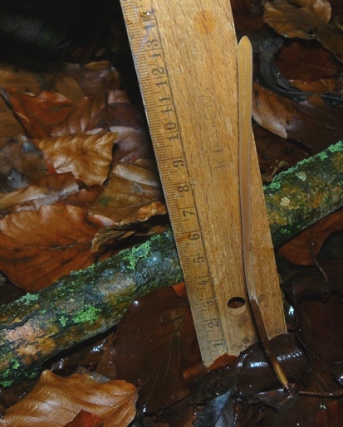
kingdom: Fungi
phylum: Basidiomycota
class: Agaricomycetes
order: Agaricales
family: Typhulaceae
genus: Typhula
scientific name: Typhula fistulosa
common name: pibet rørkølle
